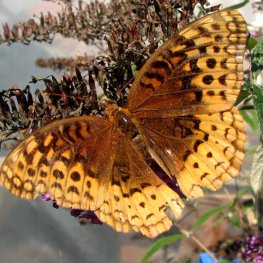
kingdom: Animalia
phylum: Arthropoda
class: Insecta
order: Lepidoptera
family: Nymphalidae
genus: Speyeria
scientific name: Speyeria cybele
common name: Great Spangled Fritillary
